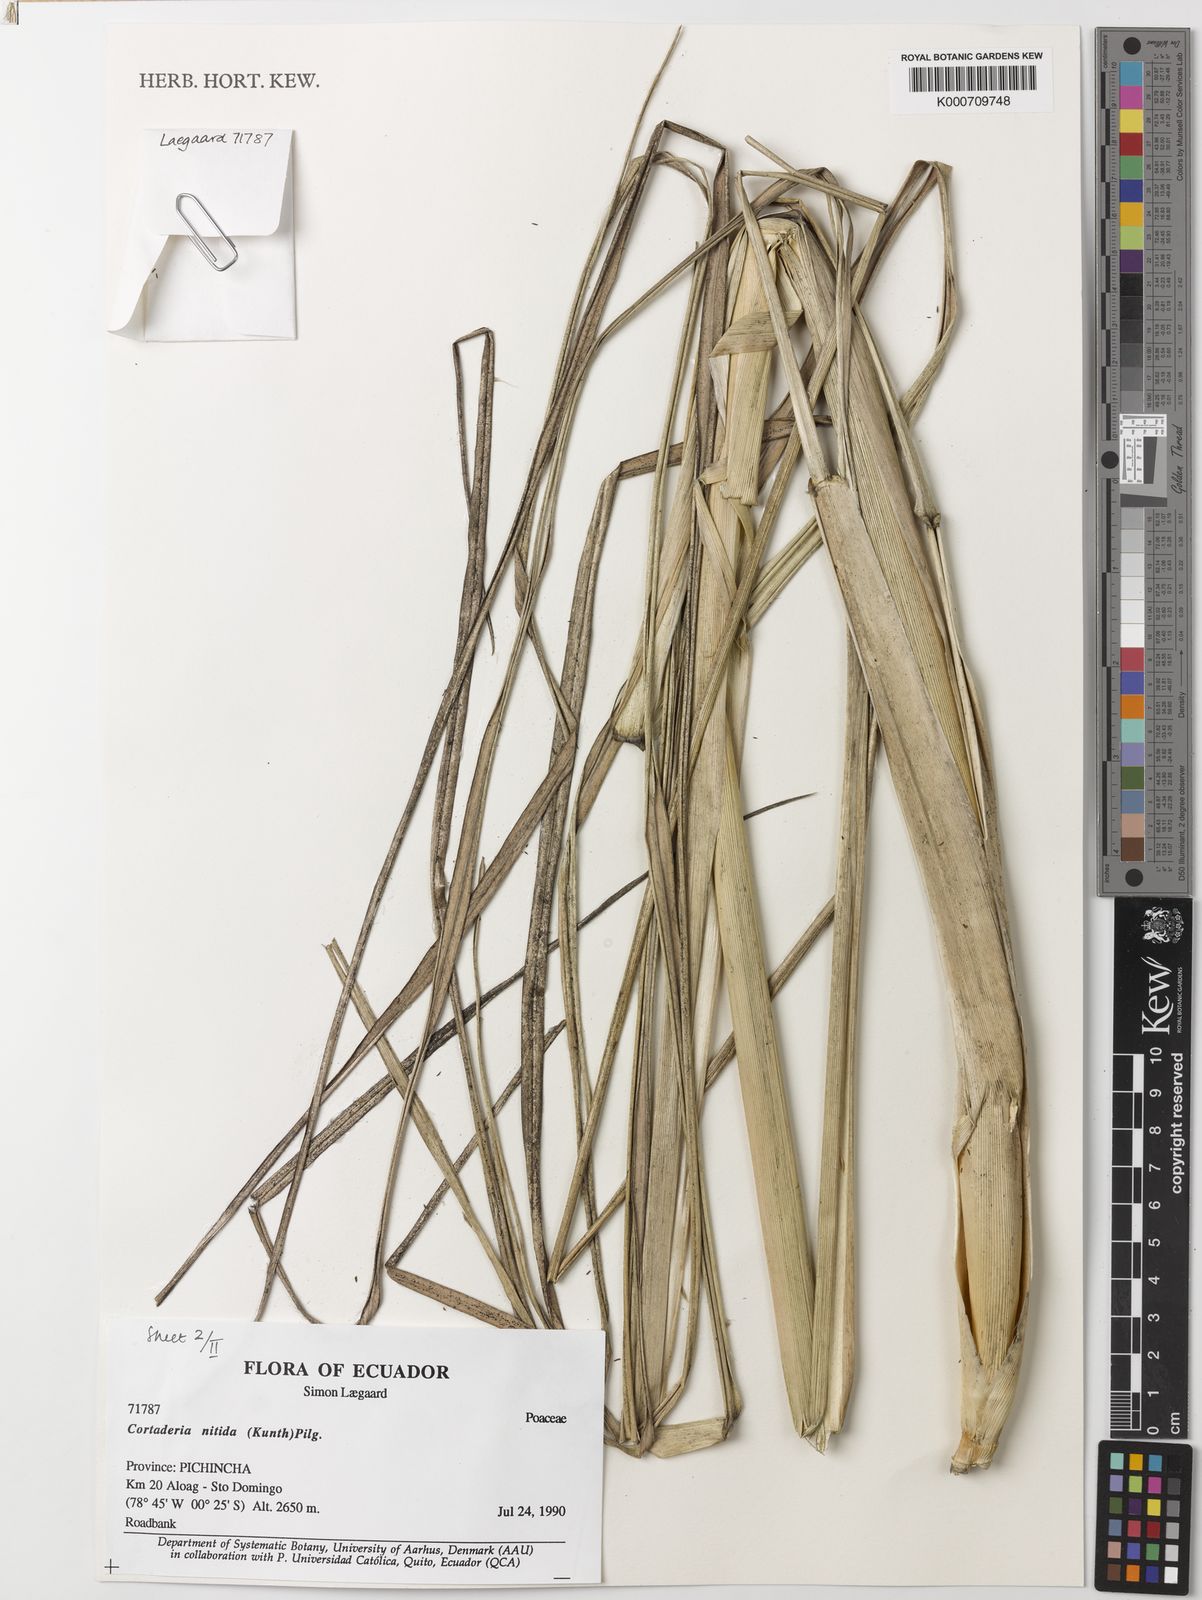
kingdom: Plantae
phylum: Tracheophyta
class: Liliopsida
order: Poales
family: Poaceae
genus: Cortaderia
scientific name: Cortaderia nitida
